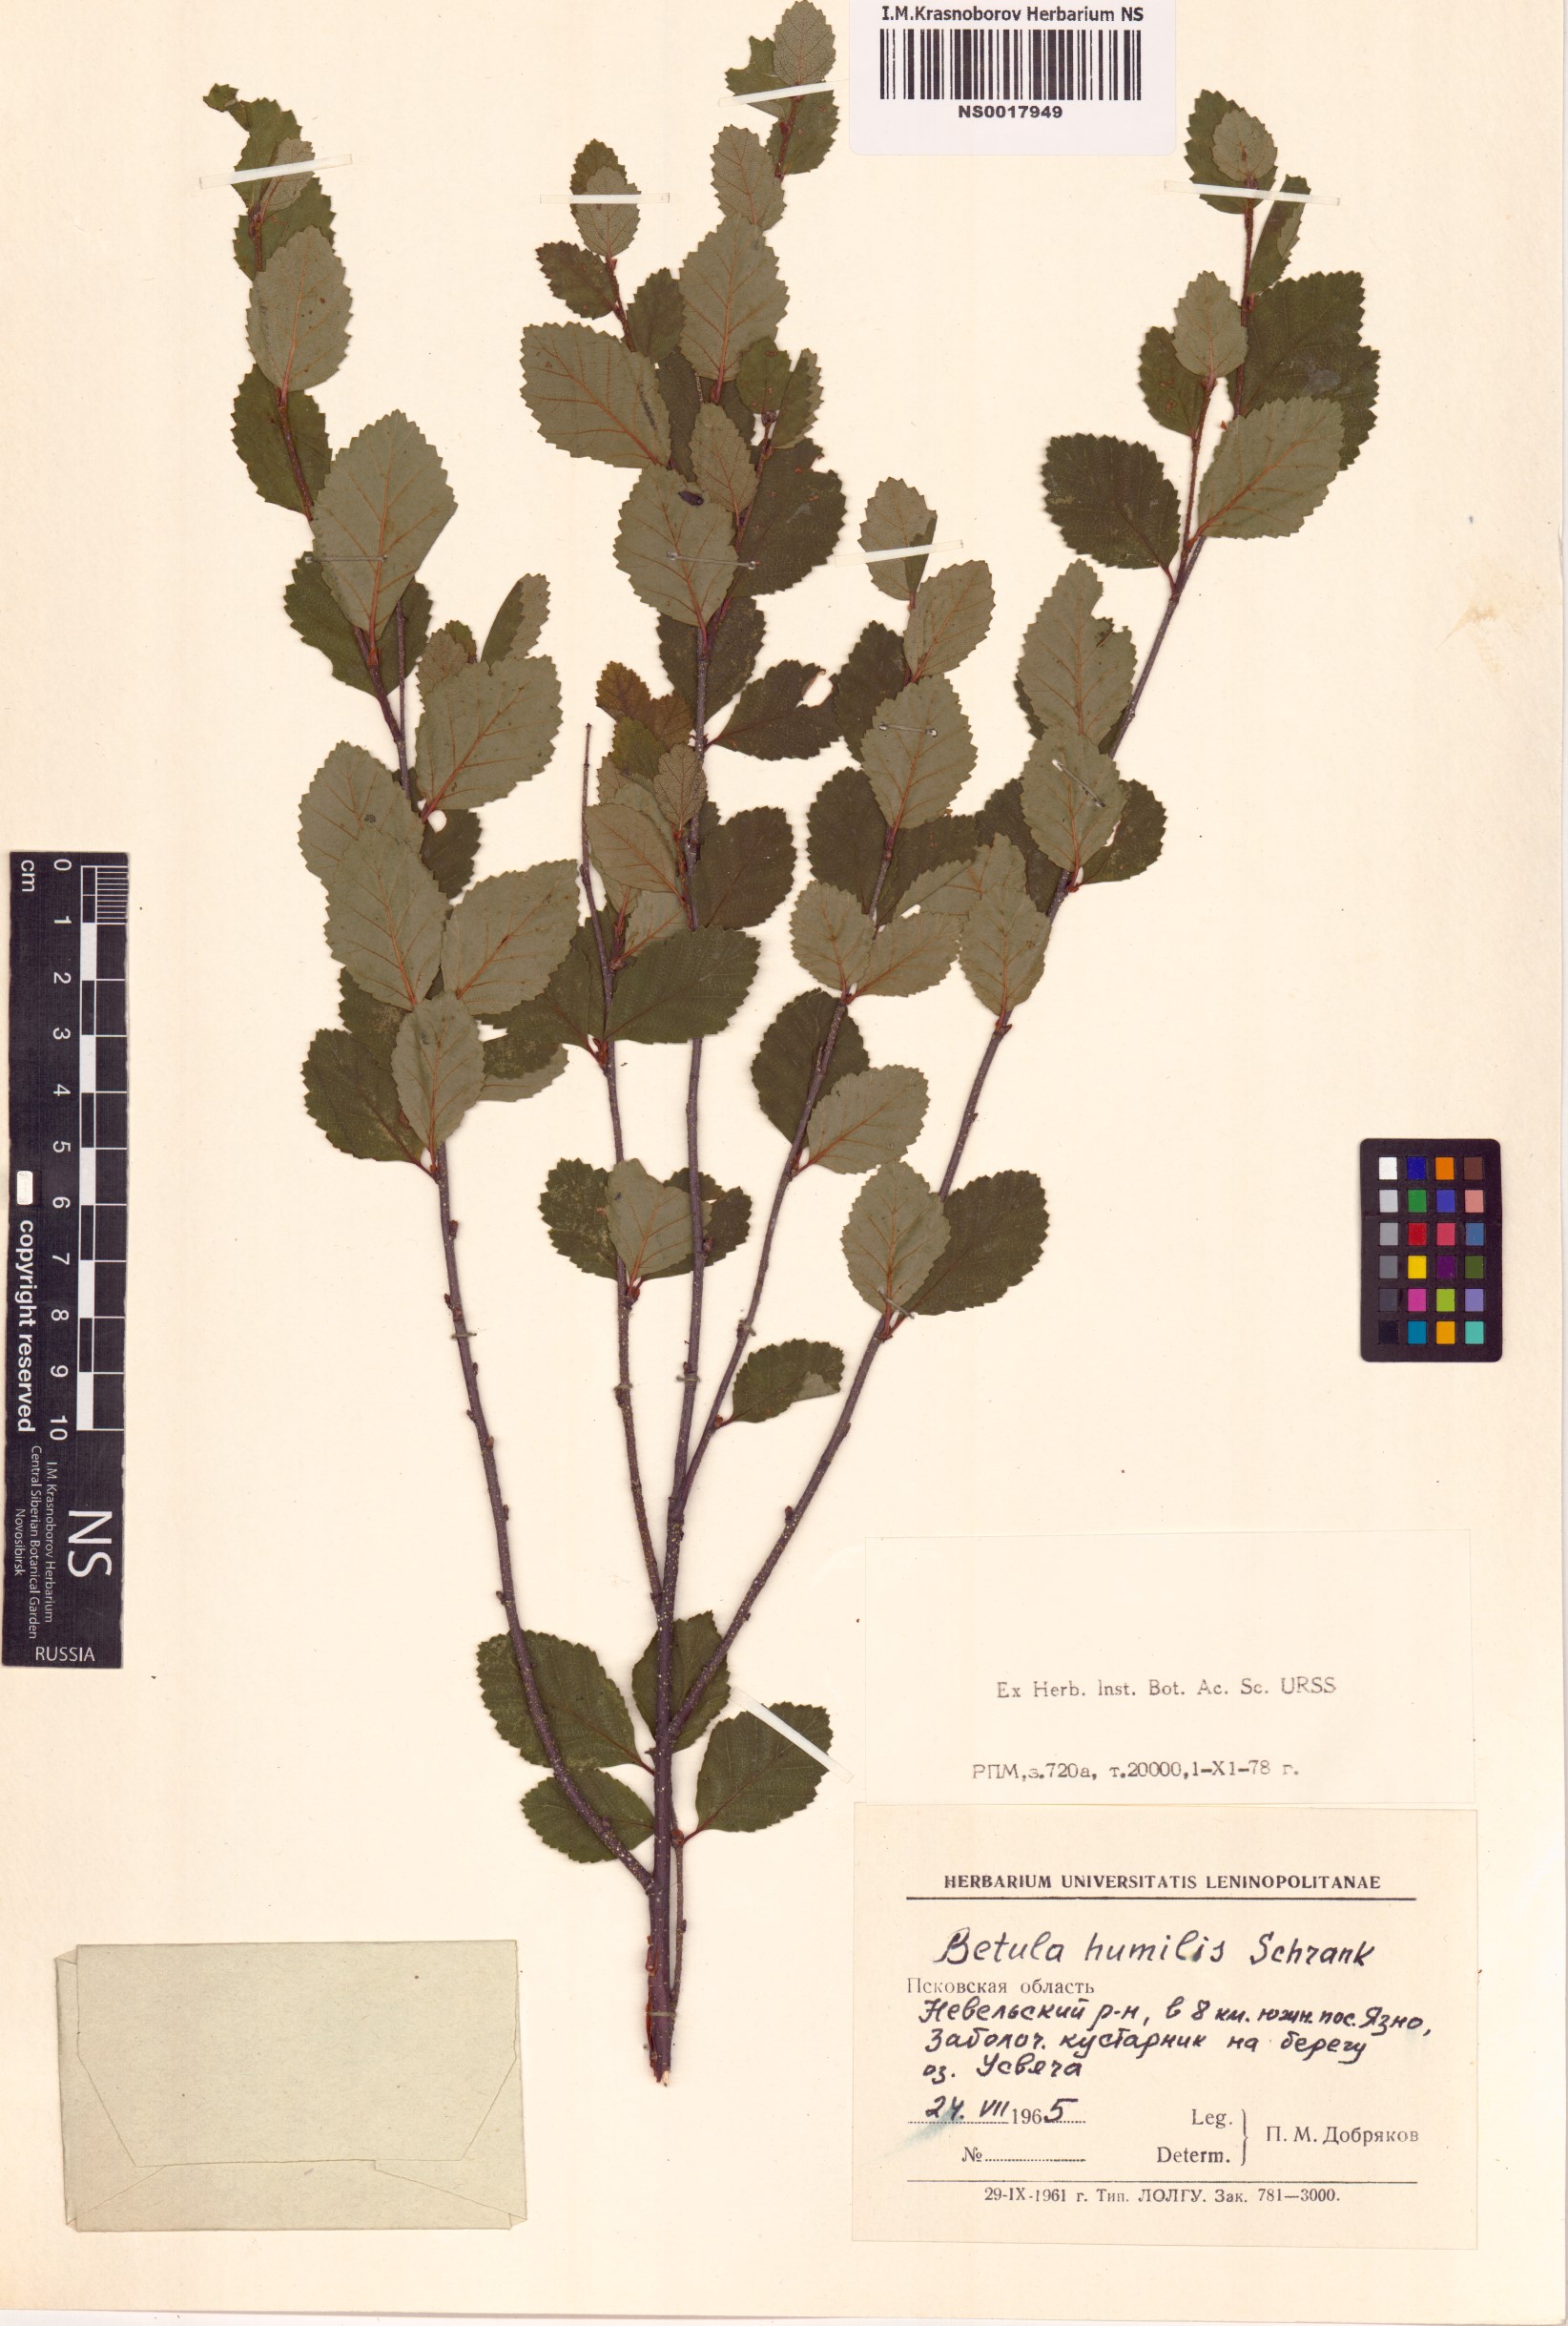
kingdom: Plantae
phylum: Tracheophyta
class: Magnoliopsida
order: Fagales
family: Betulaceae
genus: Betula
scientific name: Betula humilis
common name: Shrubby birch
